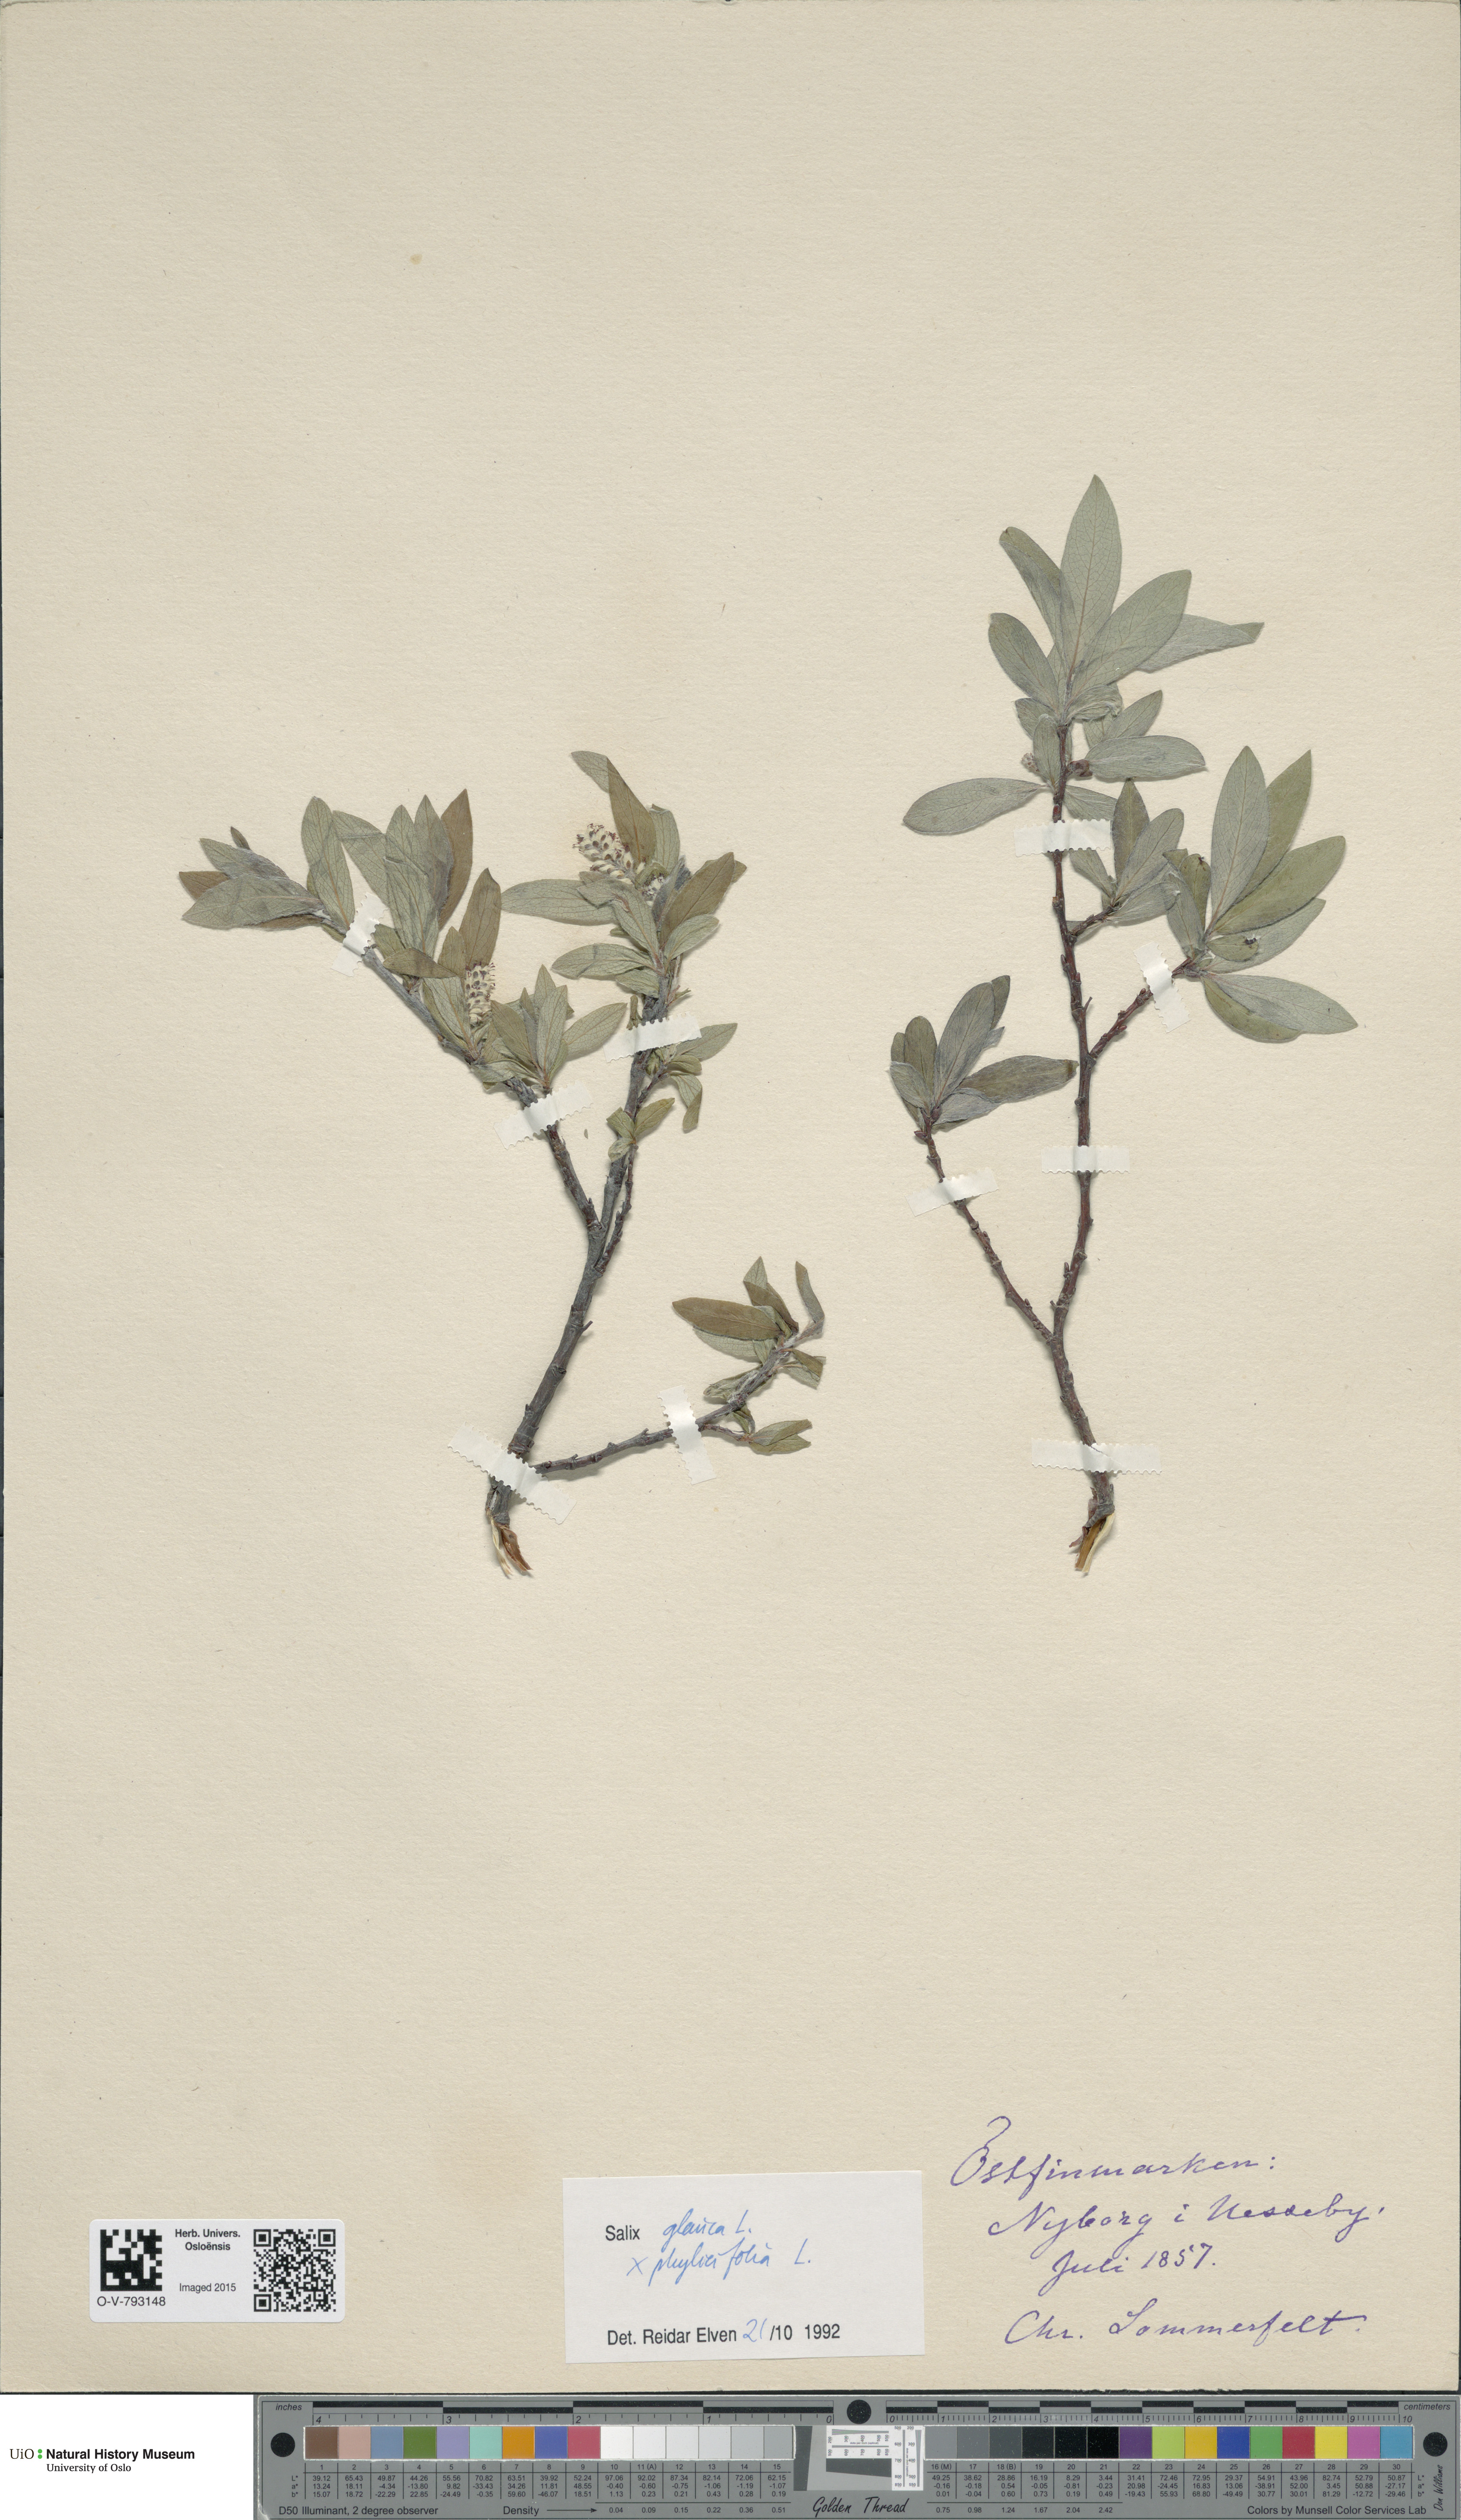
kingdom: Plantae
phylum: Tracheophyta
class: Magnoliopsida
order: Malpighiales
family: Salicaceae
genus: Salix
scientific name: Salix
